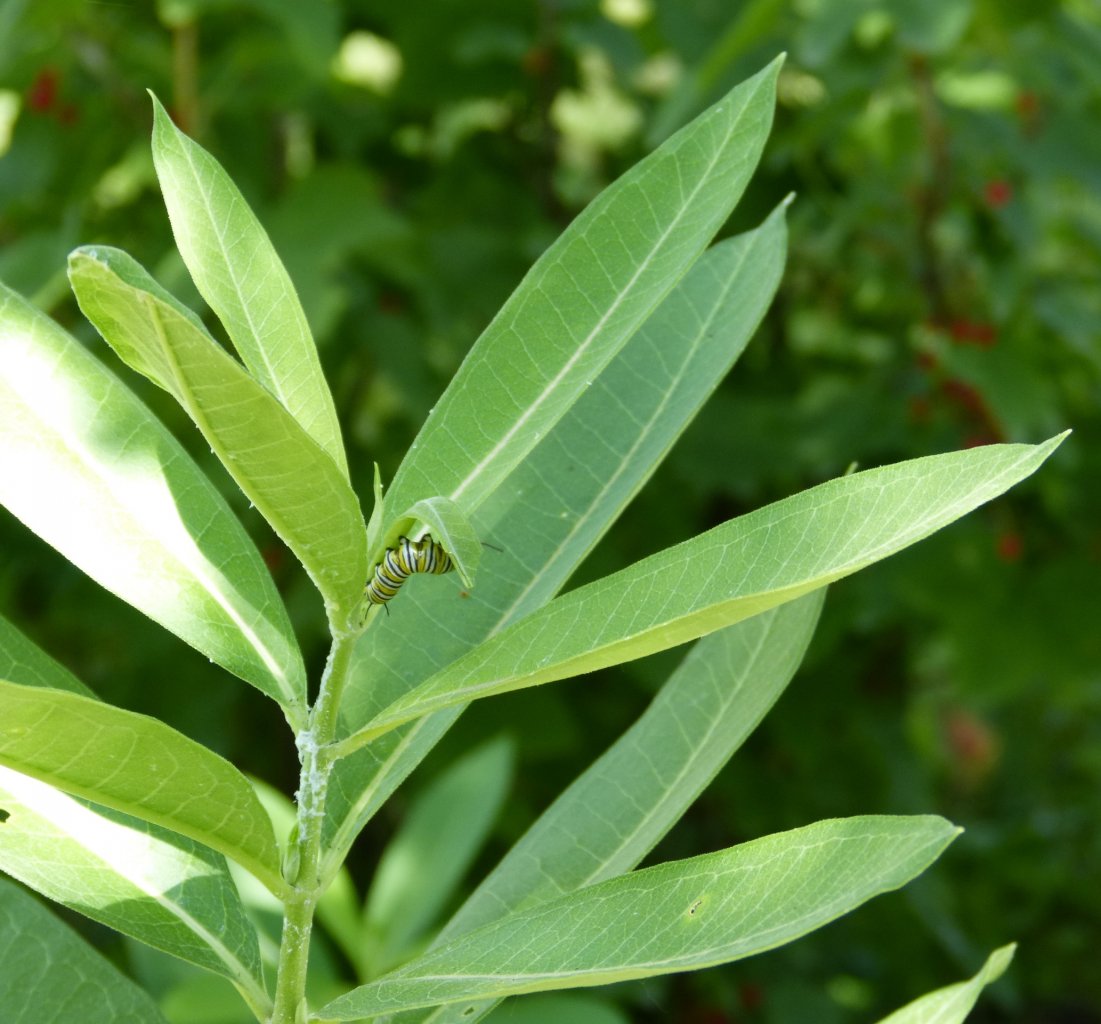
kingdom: Animalia
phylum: Arthropoda
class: Insecta
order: Lepidoptera
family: Nymphalidae
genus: Danaus
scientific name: Danaus plexippus
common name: Monarch
